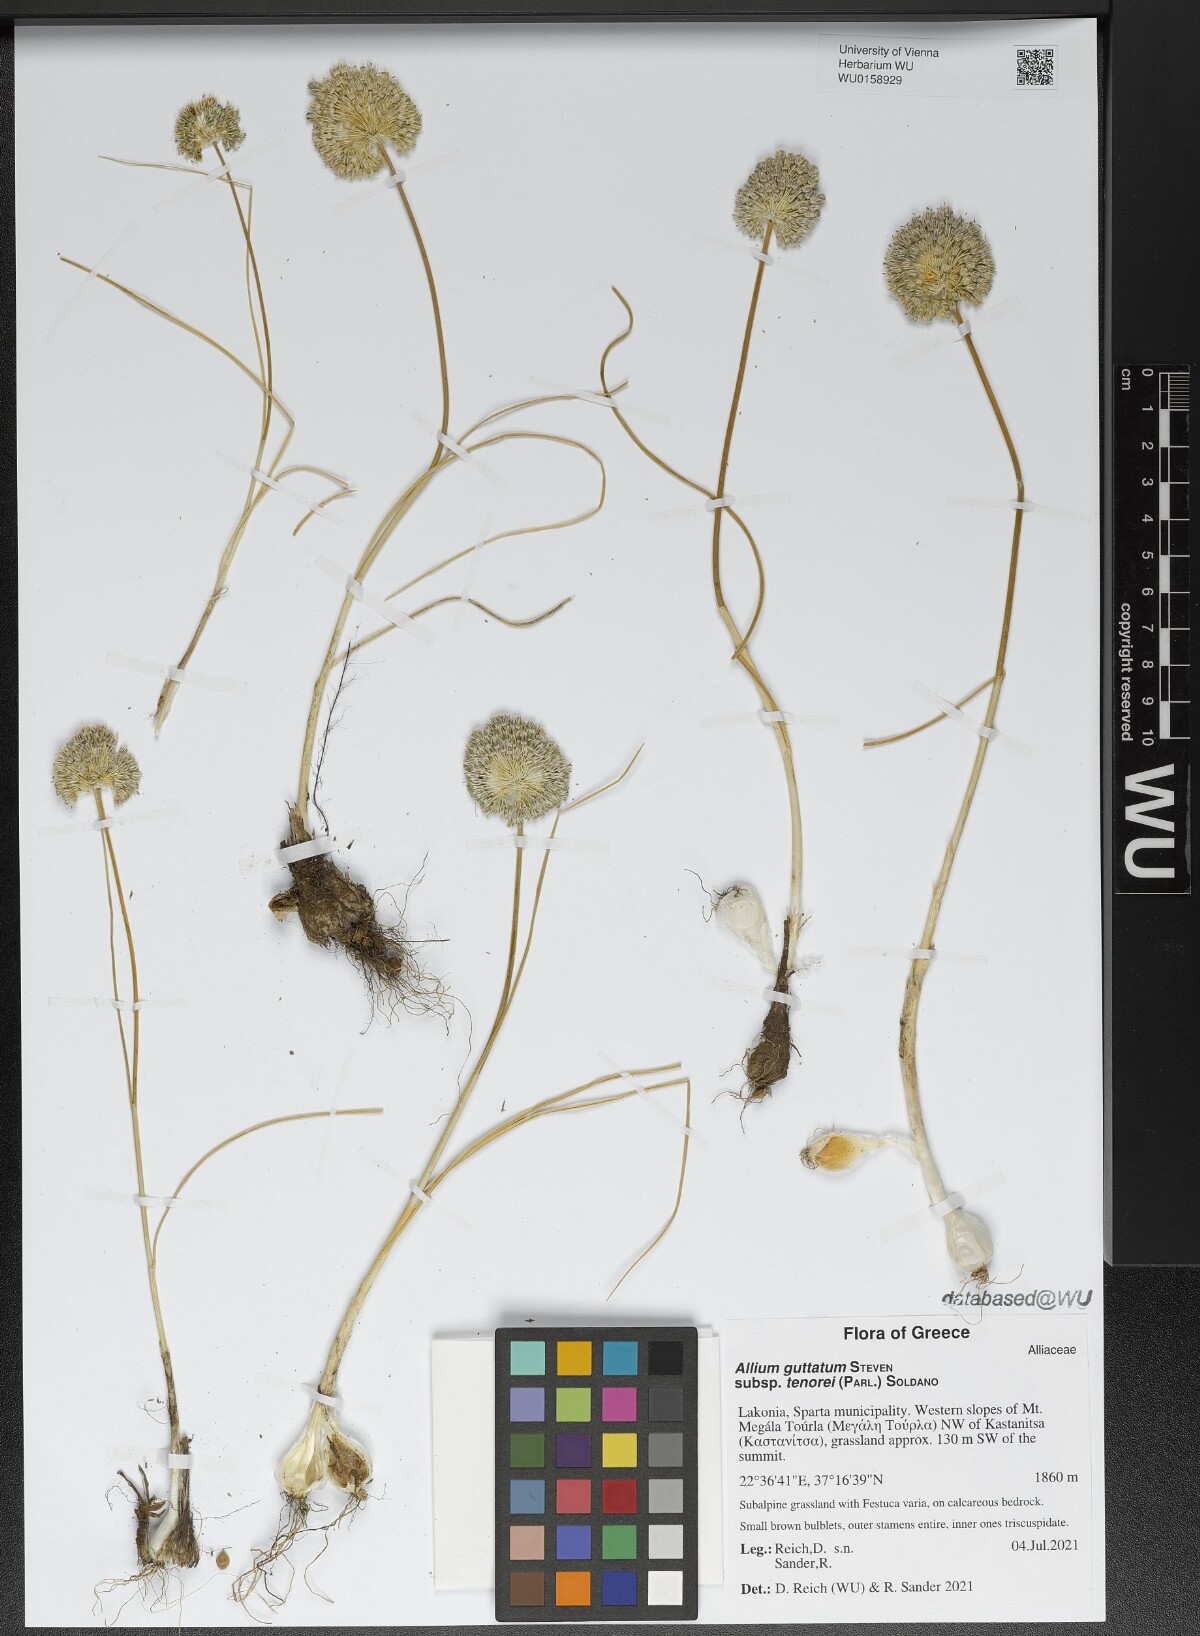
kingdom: Plantae
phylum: Tracheophyta
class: Liliopsida
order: Asparagales
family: Amaryllidaceae
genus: Allium
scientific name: Allium sardoum
